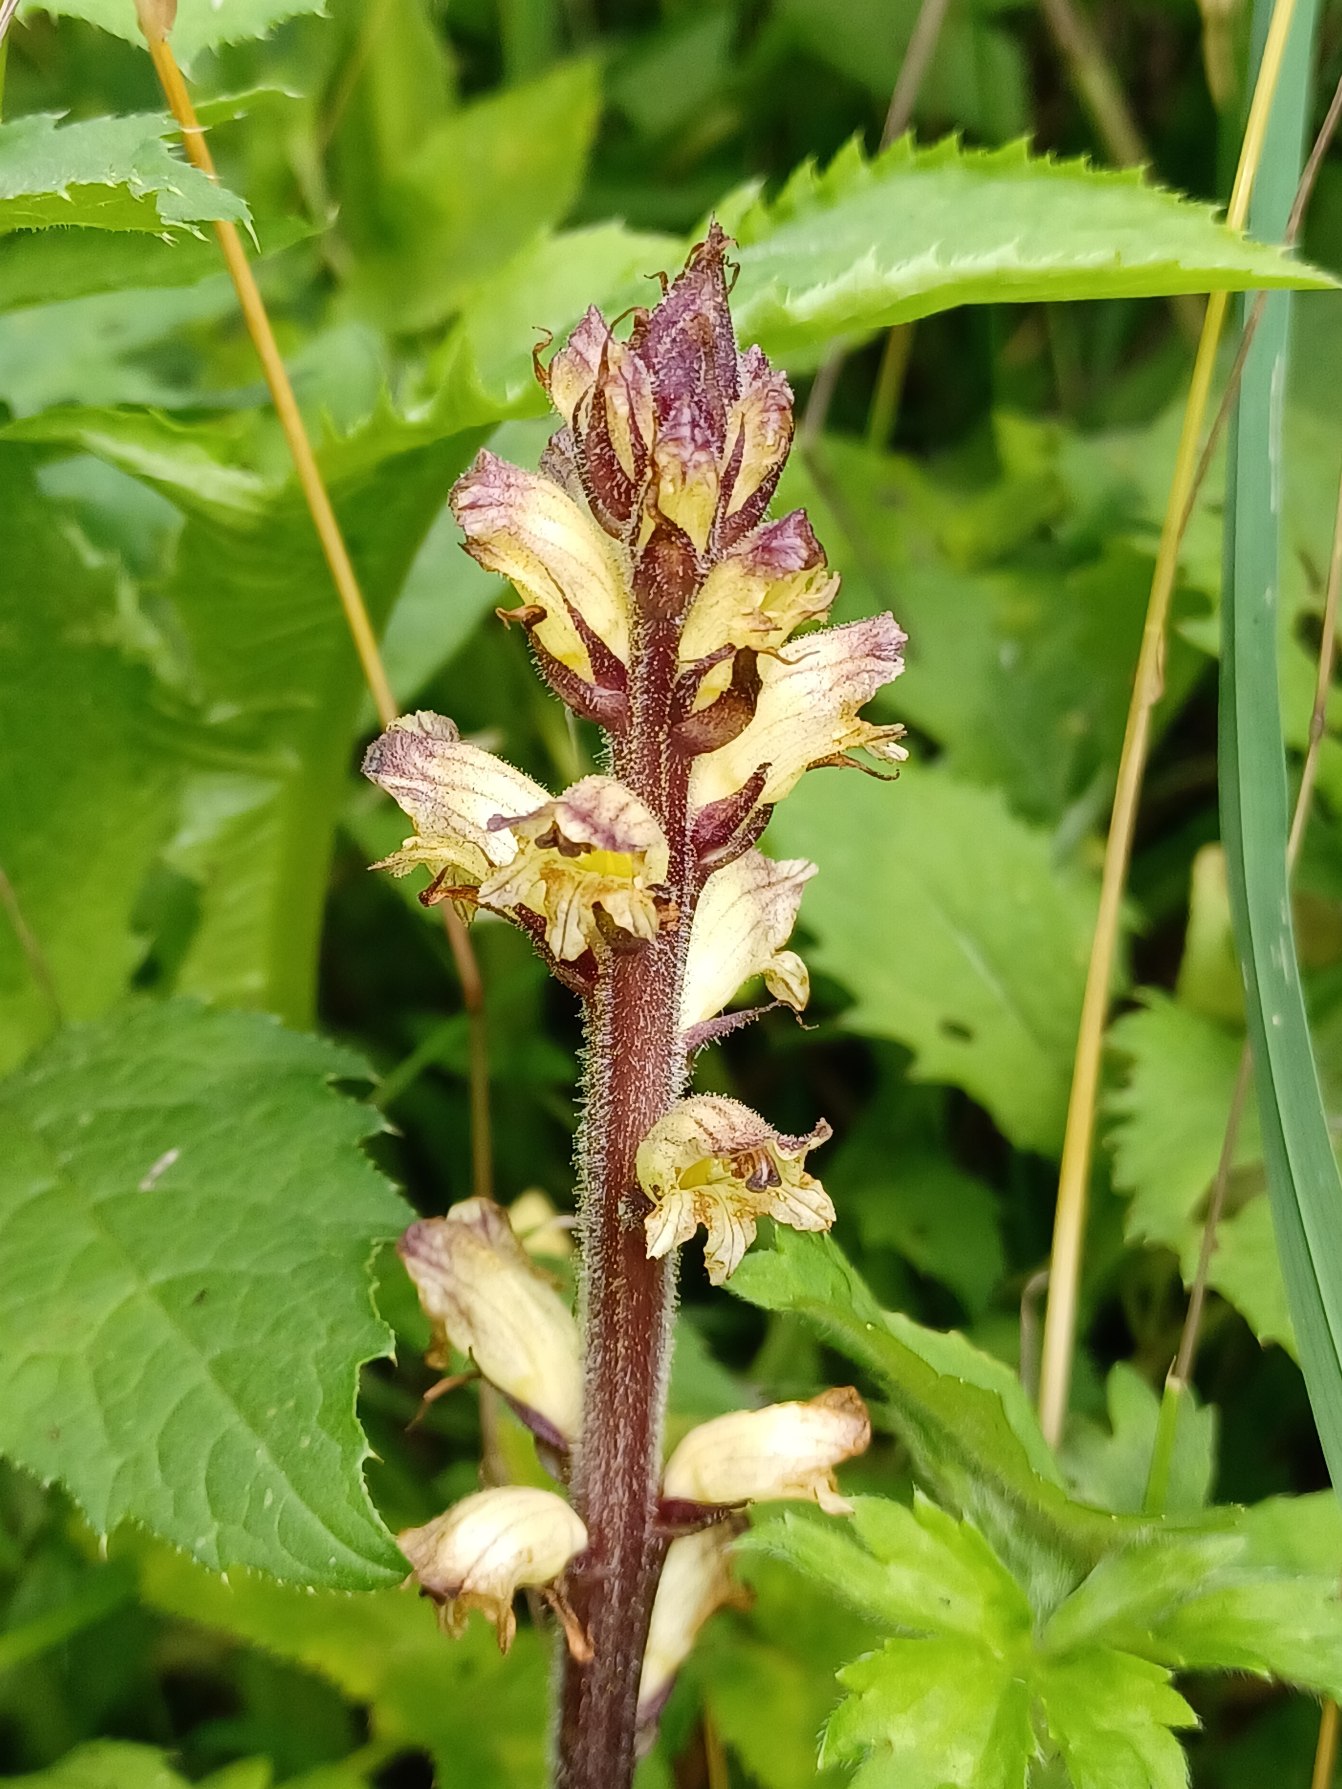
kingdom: Plantae
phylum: Tracheophyta
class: Magnoliopsida
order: Lamiales
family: Orobanchaceae
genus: Orobanche
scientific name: Orobanche reticulata
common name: Tidsel-gyvelkvæler
